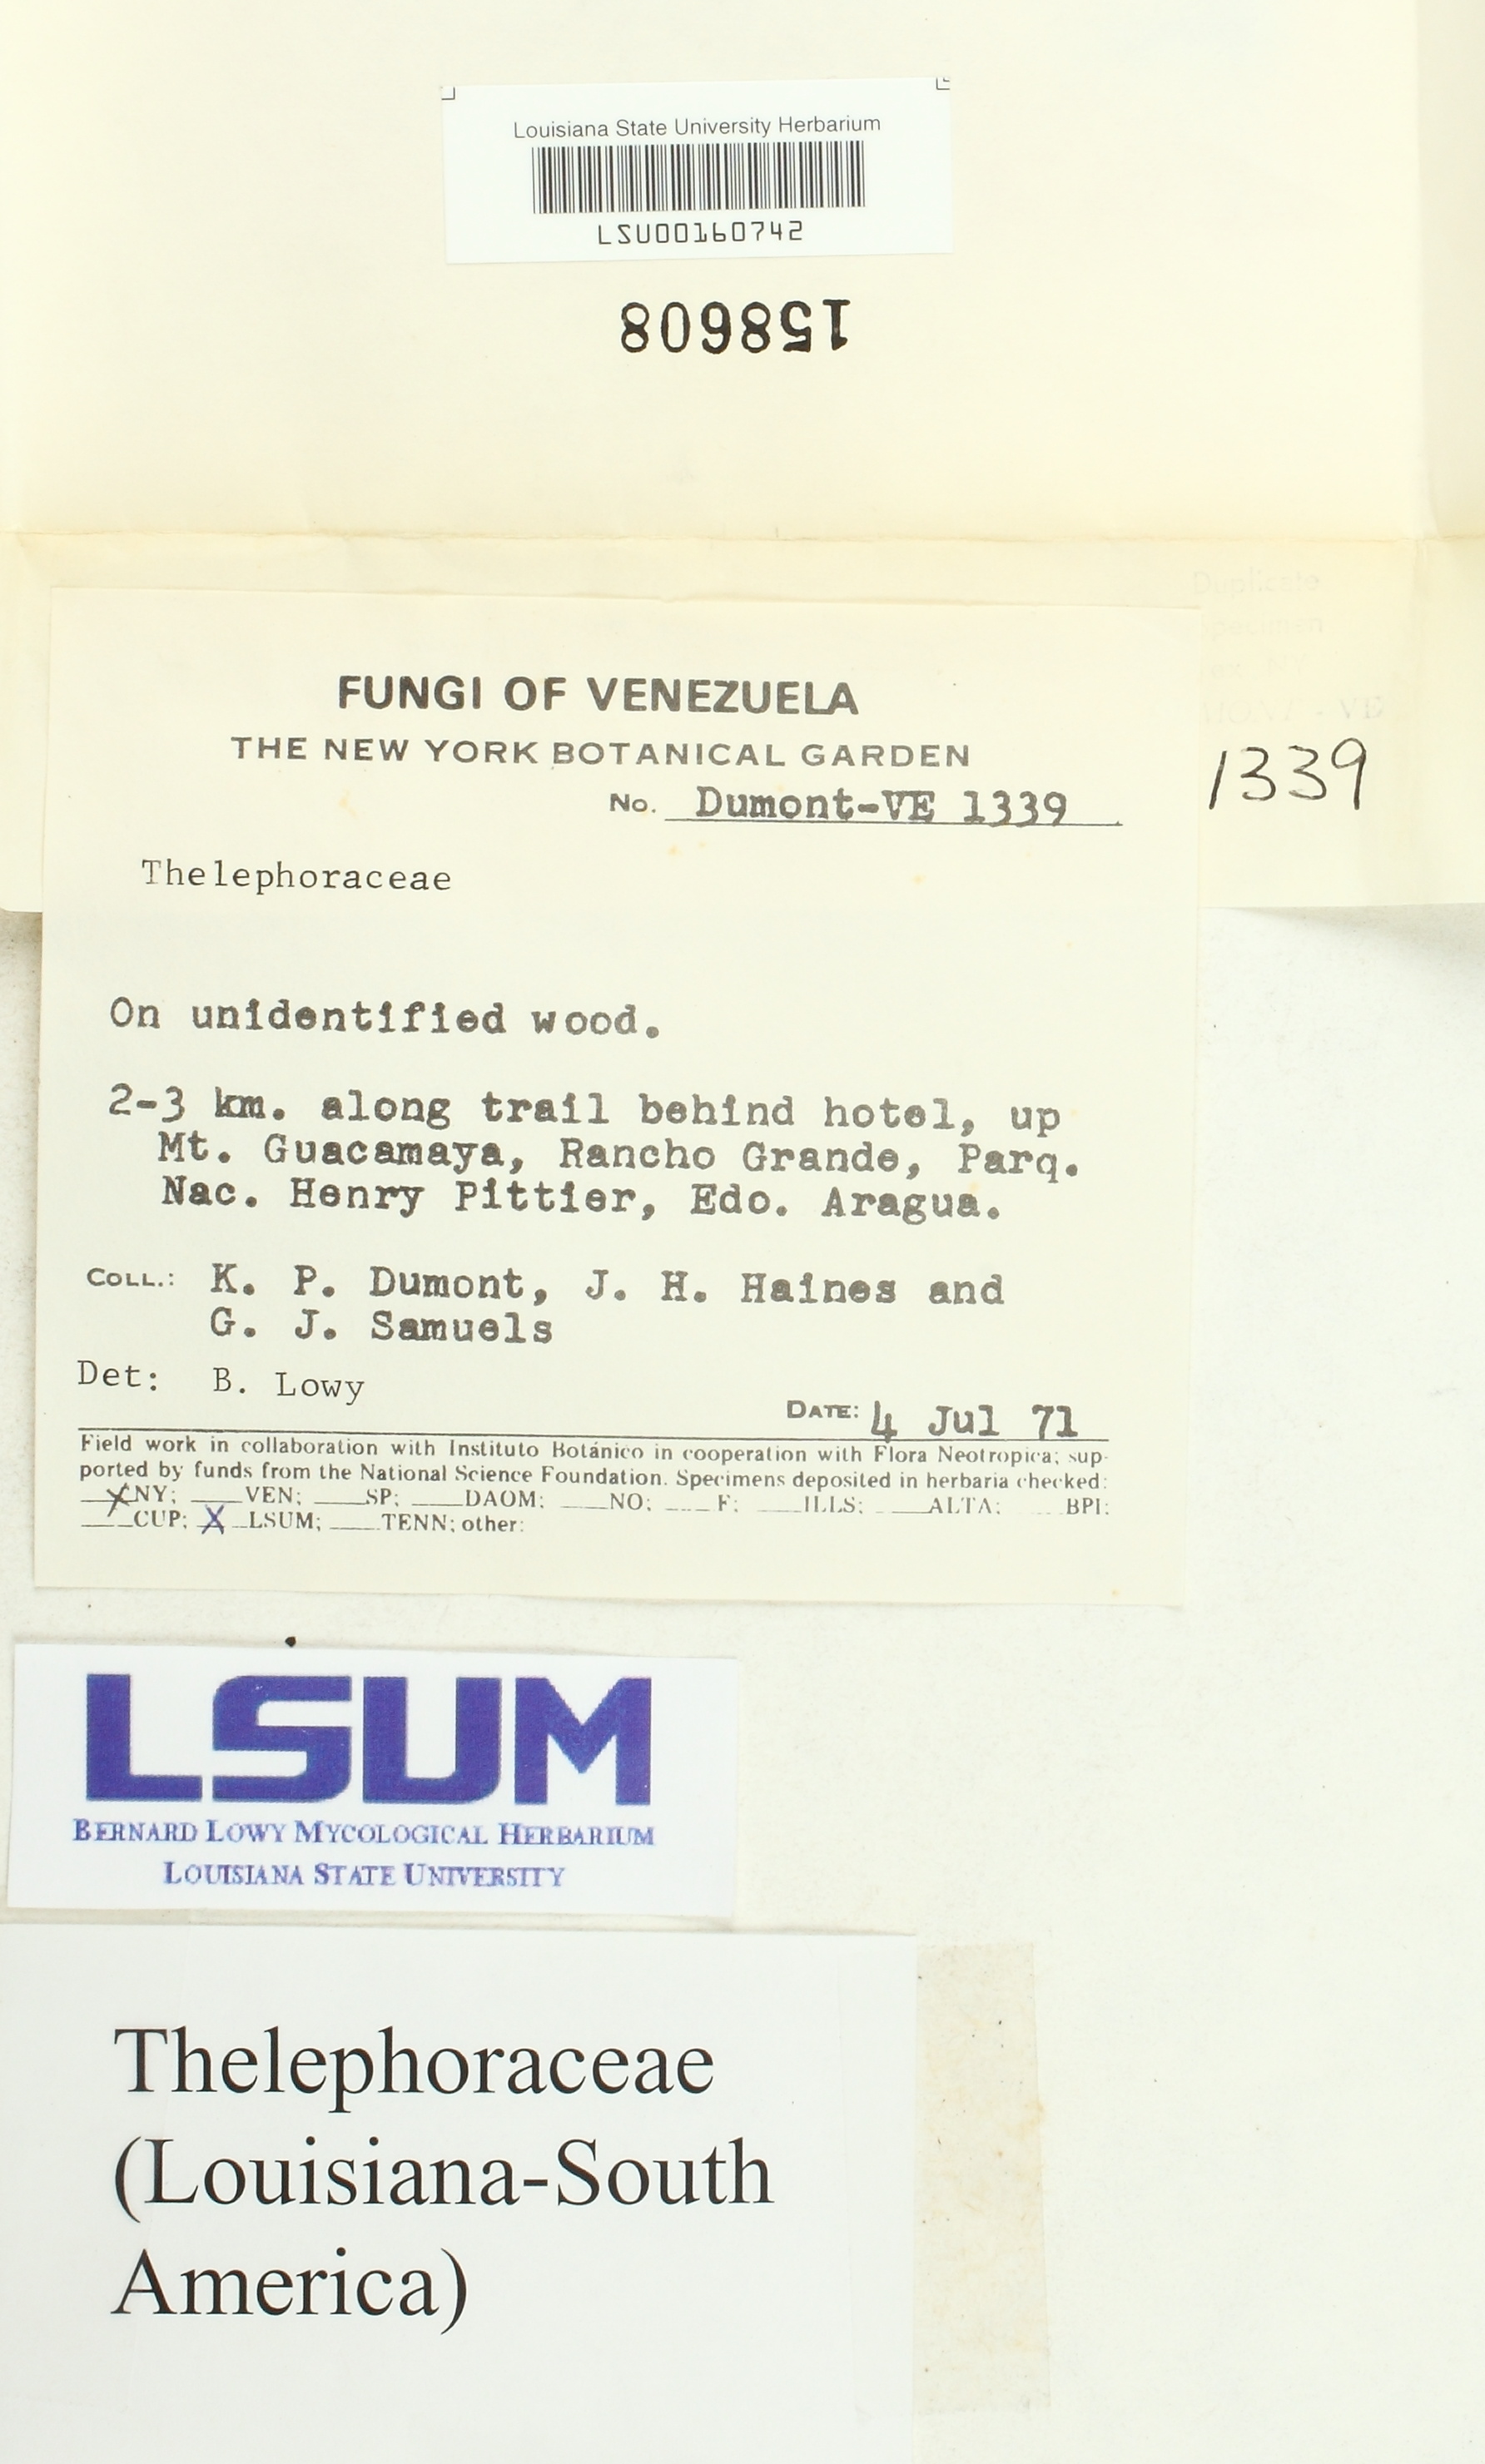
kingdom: Fungi
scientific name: Fungi
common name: Fungi
